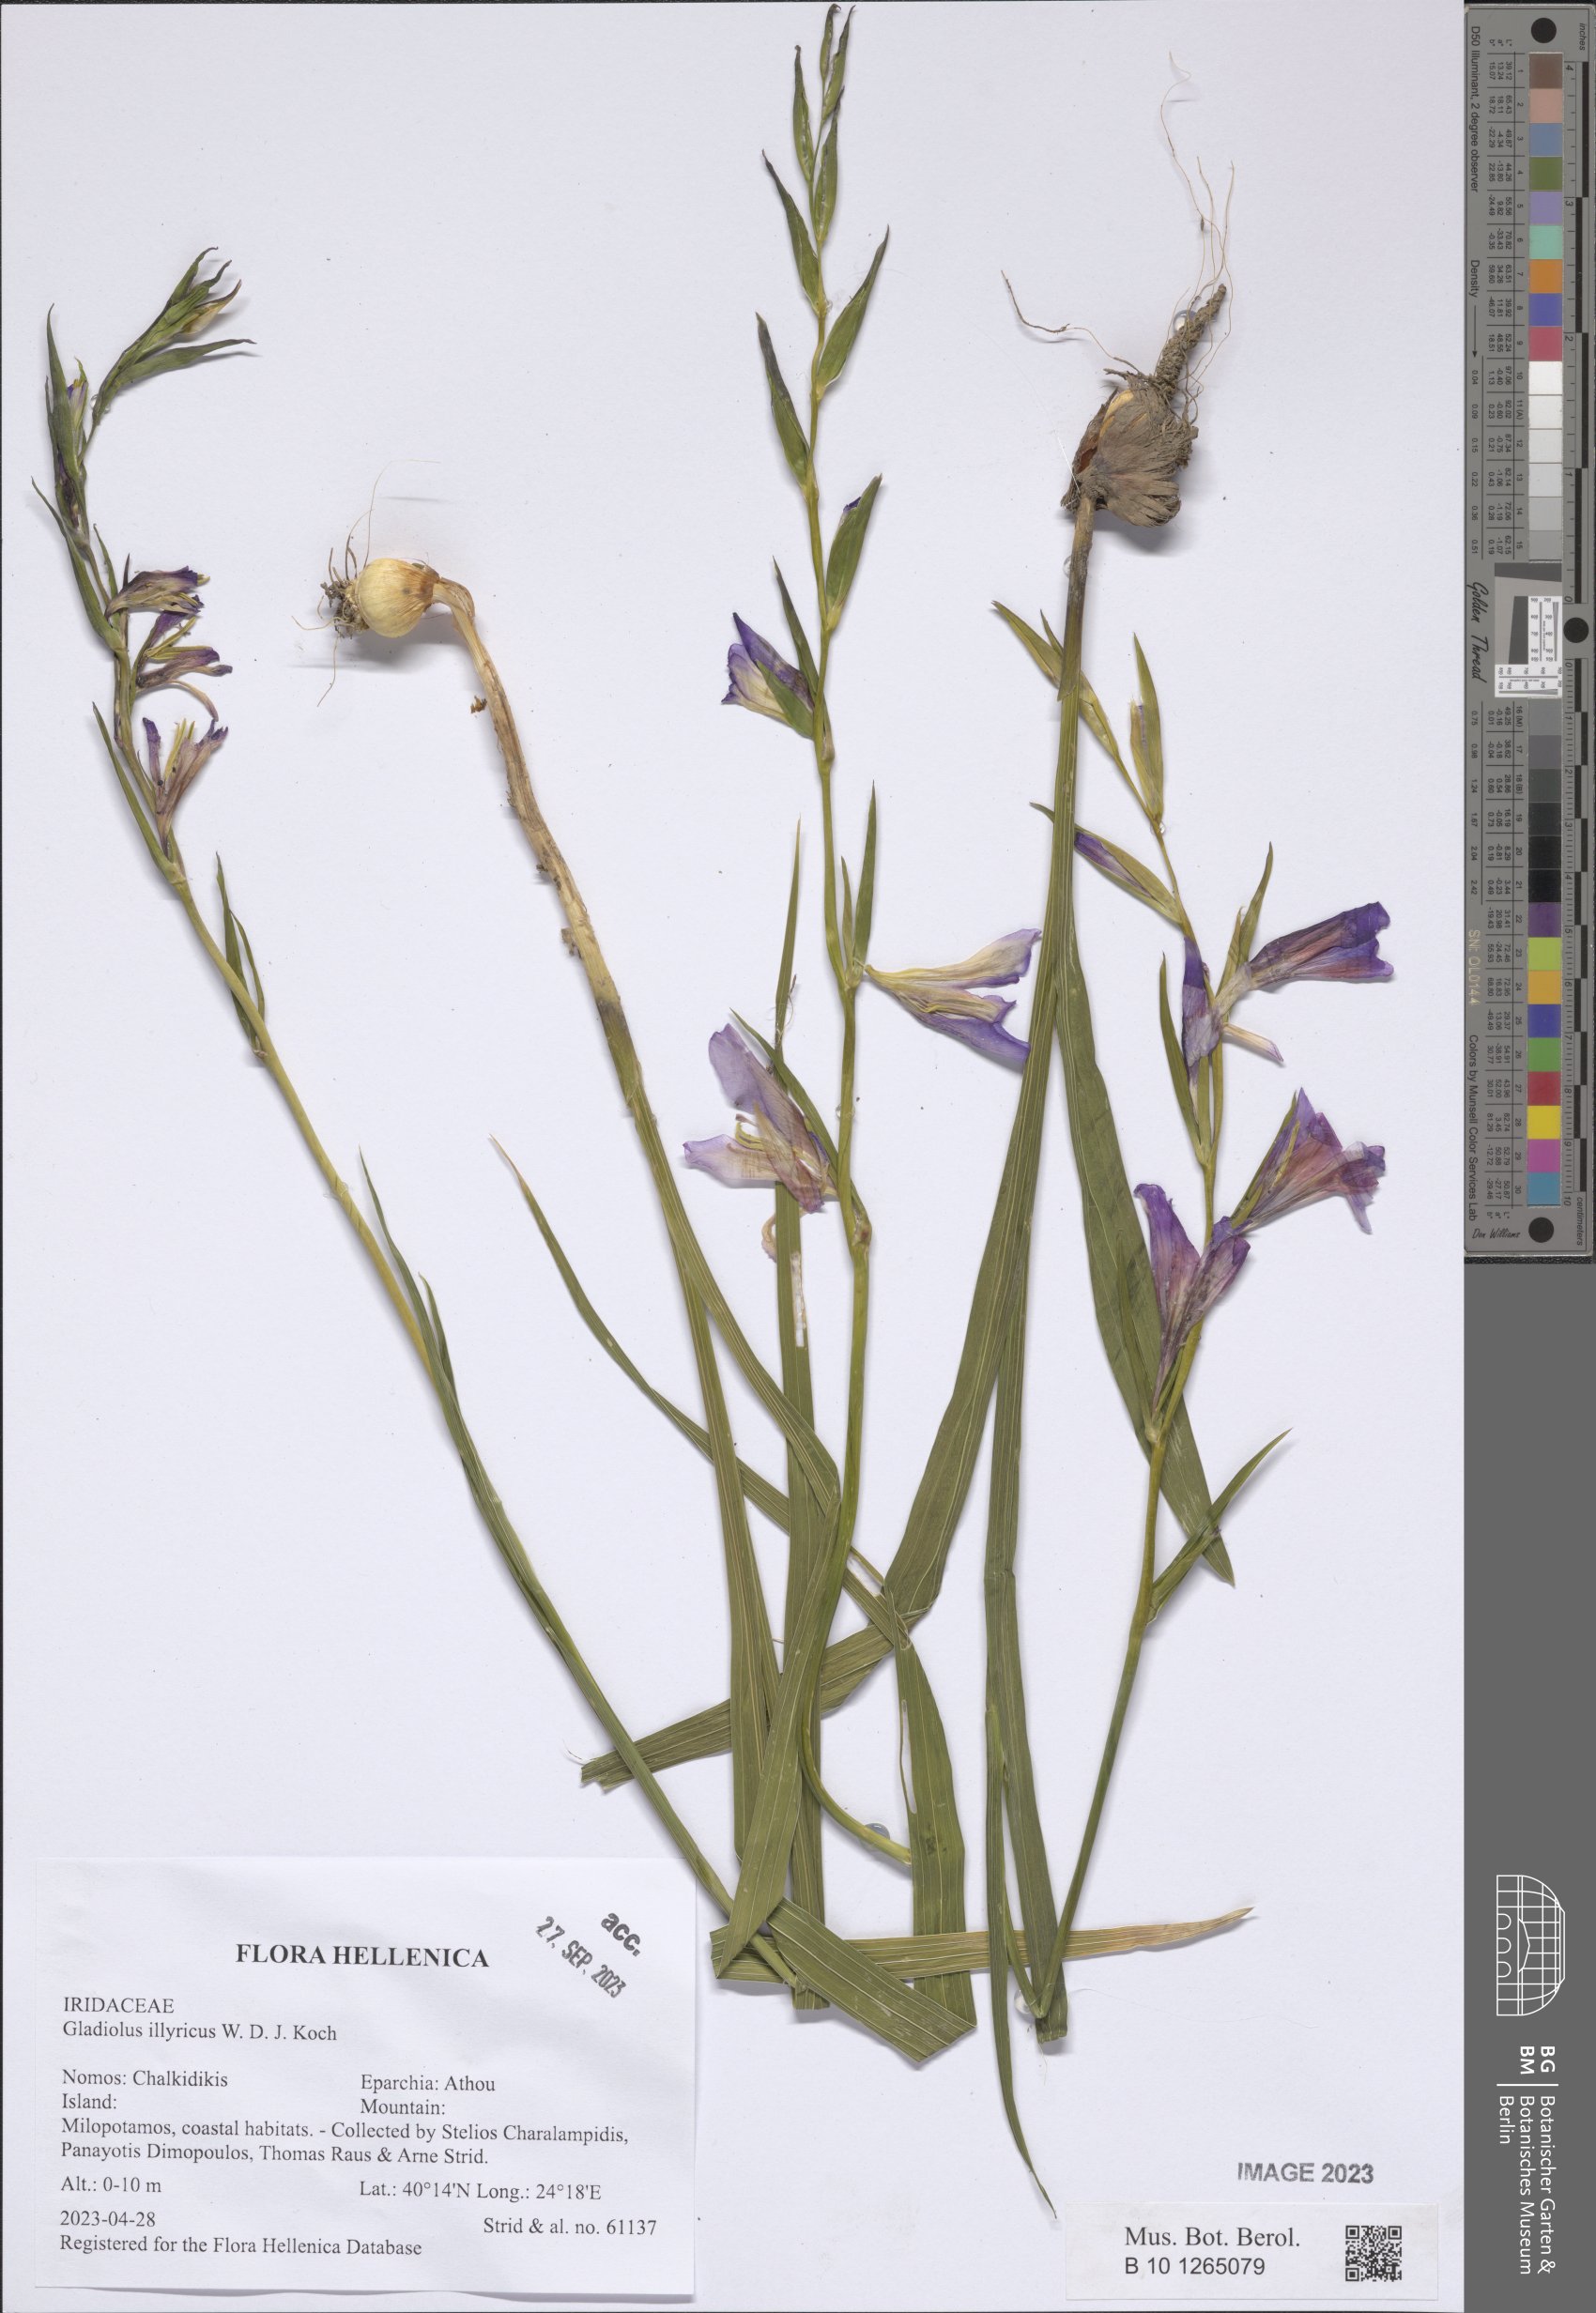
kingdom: Plantae
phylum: Tracheophyta
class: Liliopsida
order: Asparagales
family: Iridaceae
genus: Gladiolus
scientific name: Gladiolus illyricus
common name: Wild gladiolus
